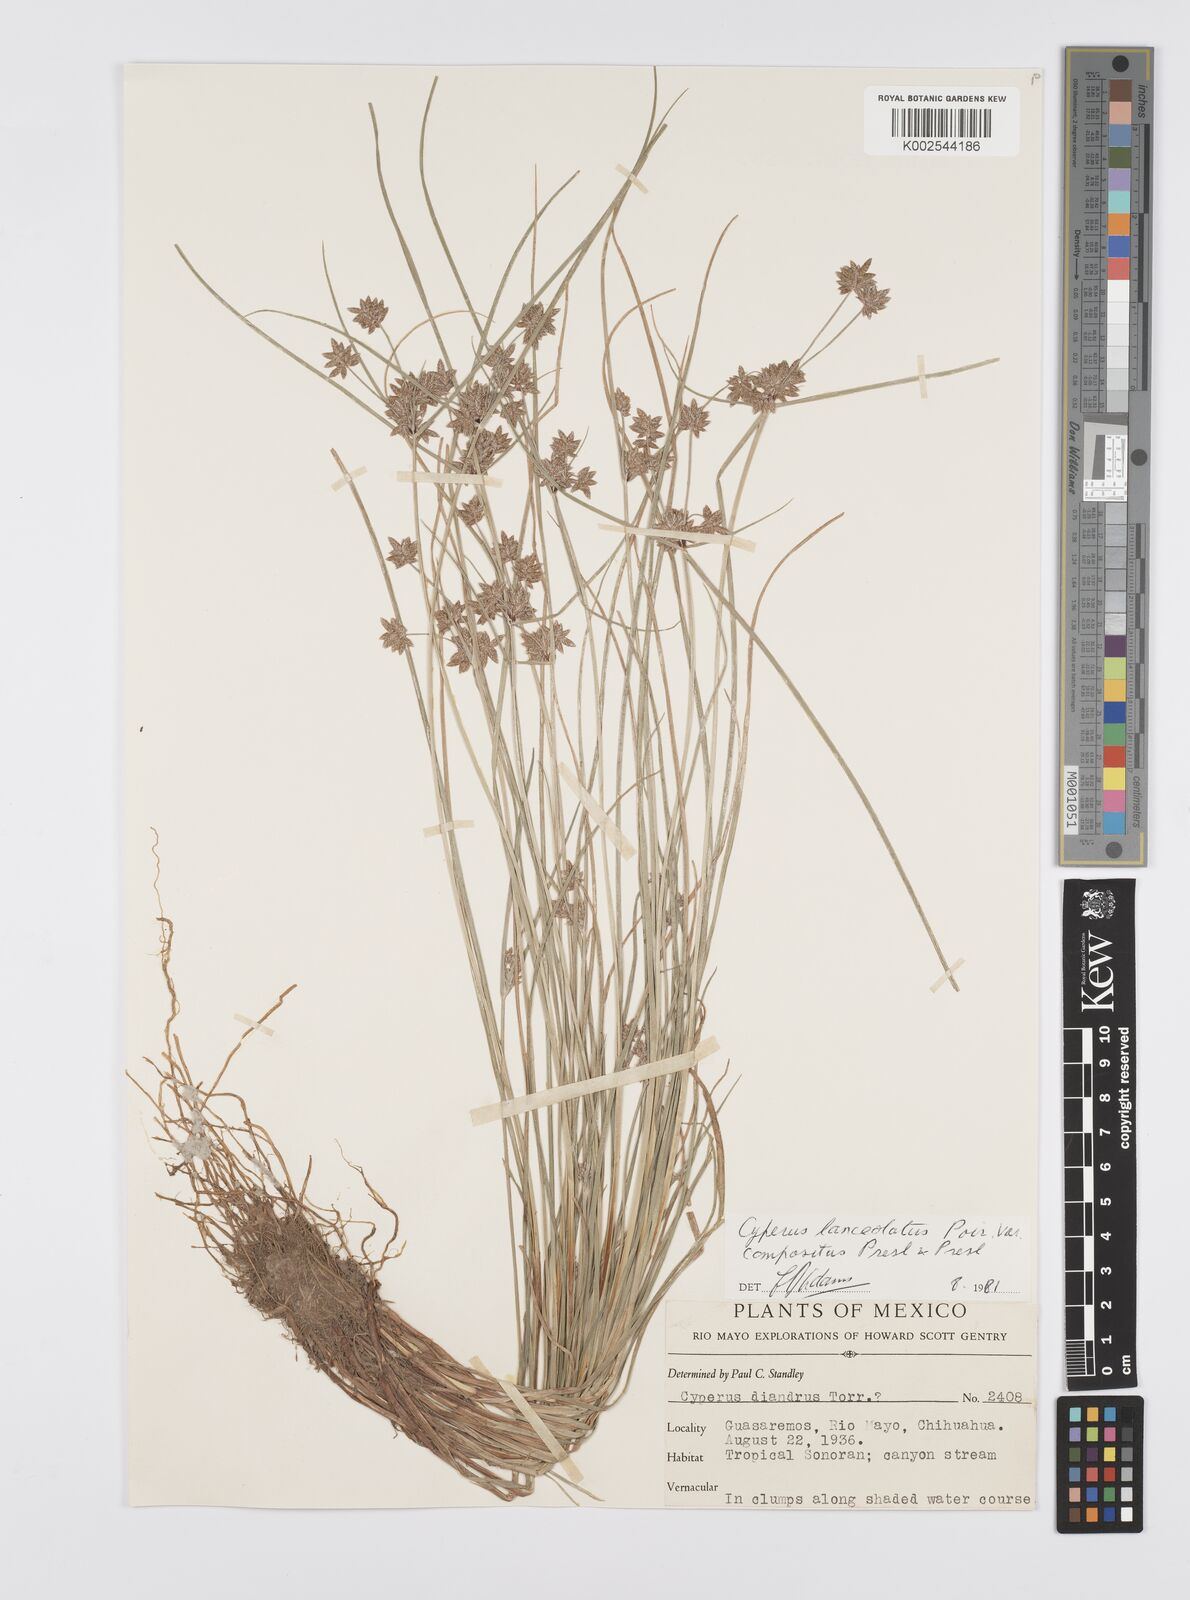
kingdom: Plantae
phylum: Tracheophyta
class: Liliopsida
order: Poales
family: Cyperaceae
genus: Cyperus
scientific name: Cyperus
